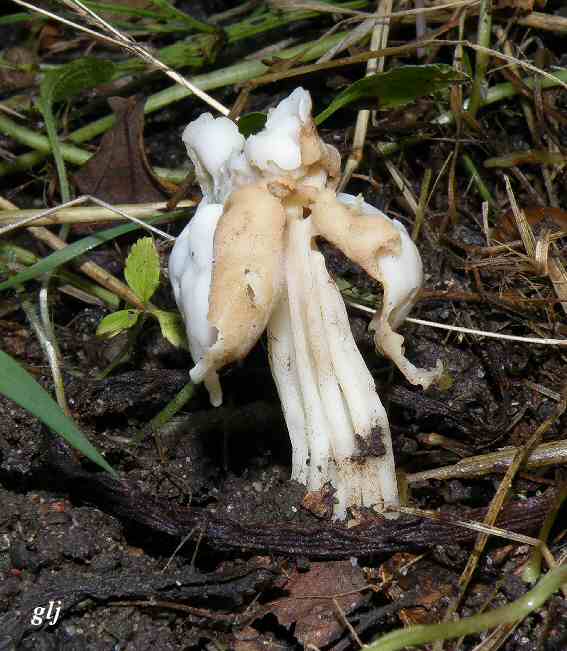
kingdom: Fungi
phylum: Ascomycota
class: Pezizomycetes
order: Pezizales
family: Helvellaceae
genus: Helvella
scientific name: Helvella crispa
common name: kruset foldhat
